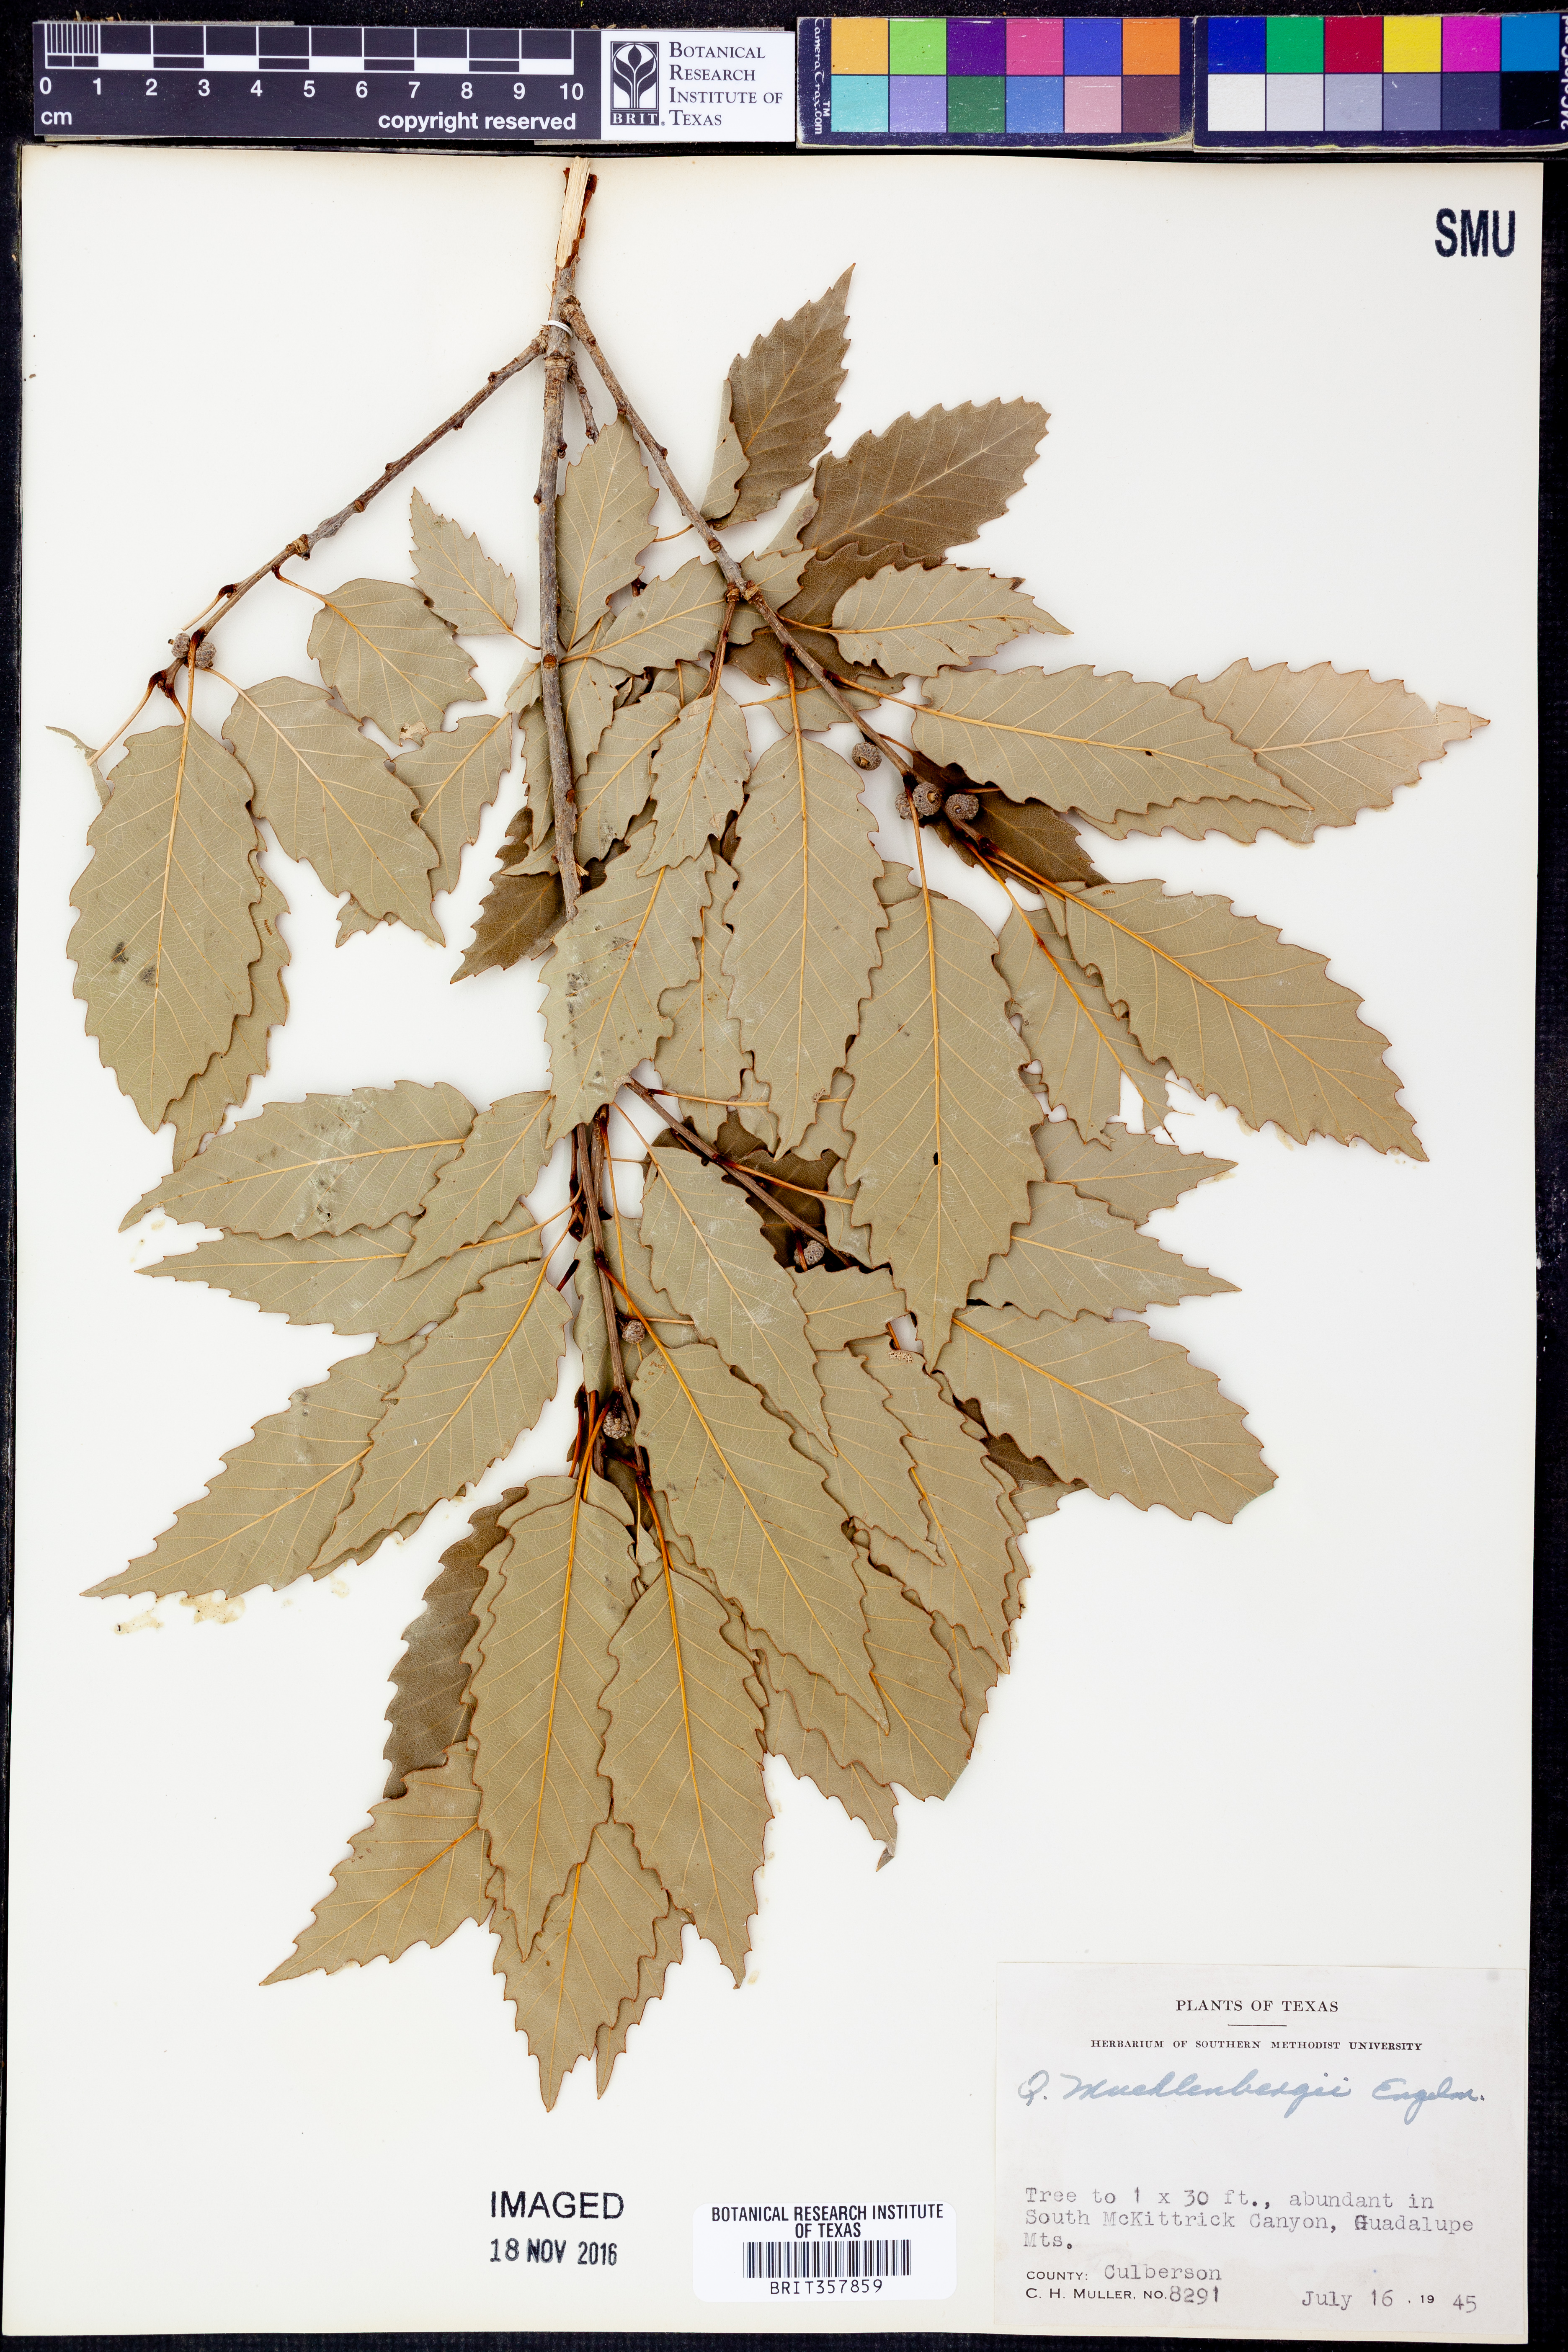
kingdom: Plantae
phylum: Tracheophyta
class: Magnoliopsida
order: Fagales
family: Fagaceae
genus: Quercus
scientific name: Quercus muehlenbergii
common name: Chinkapin oak
